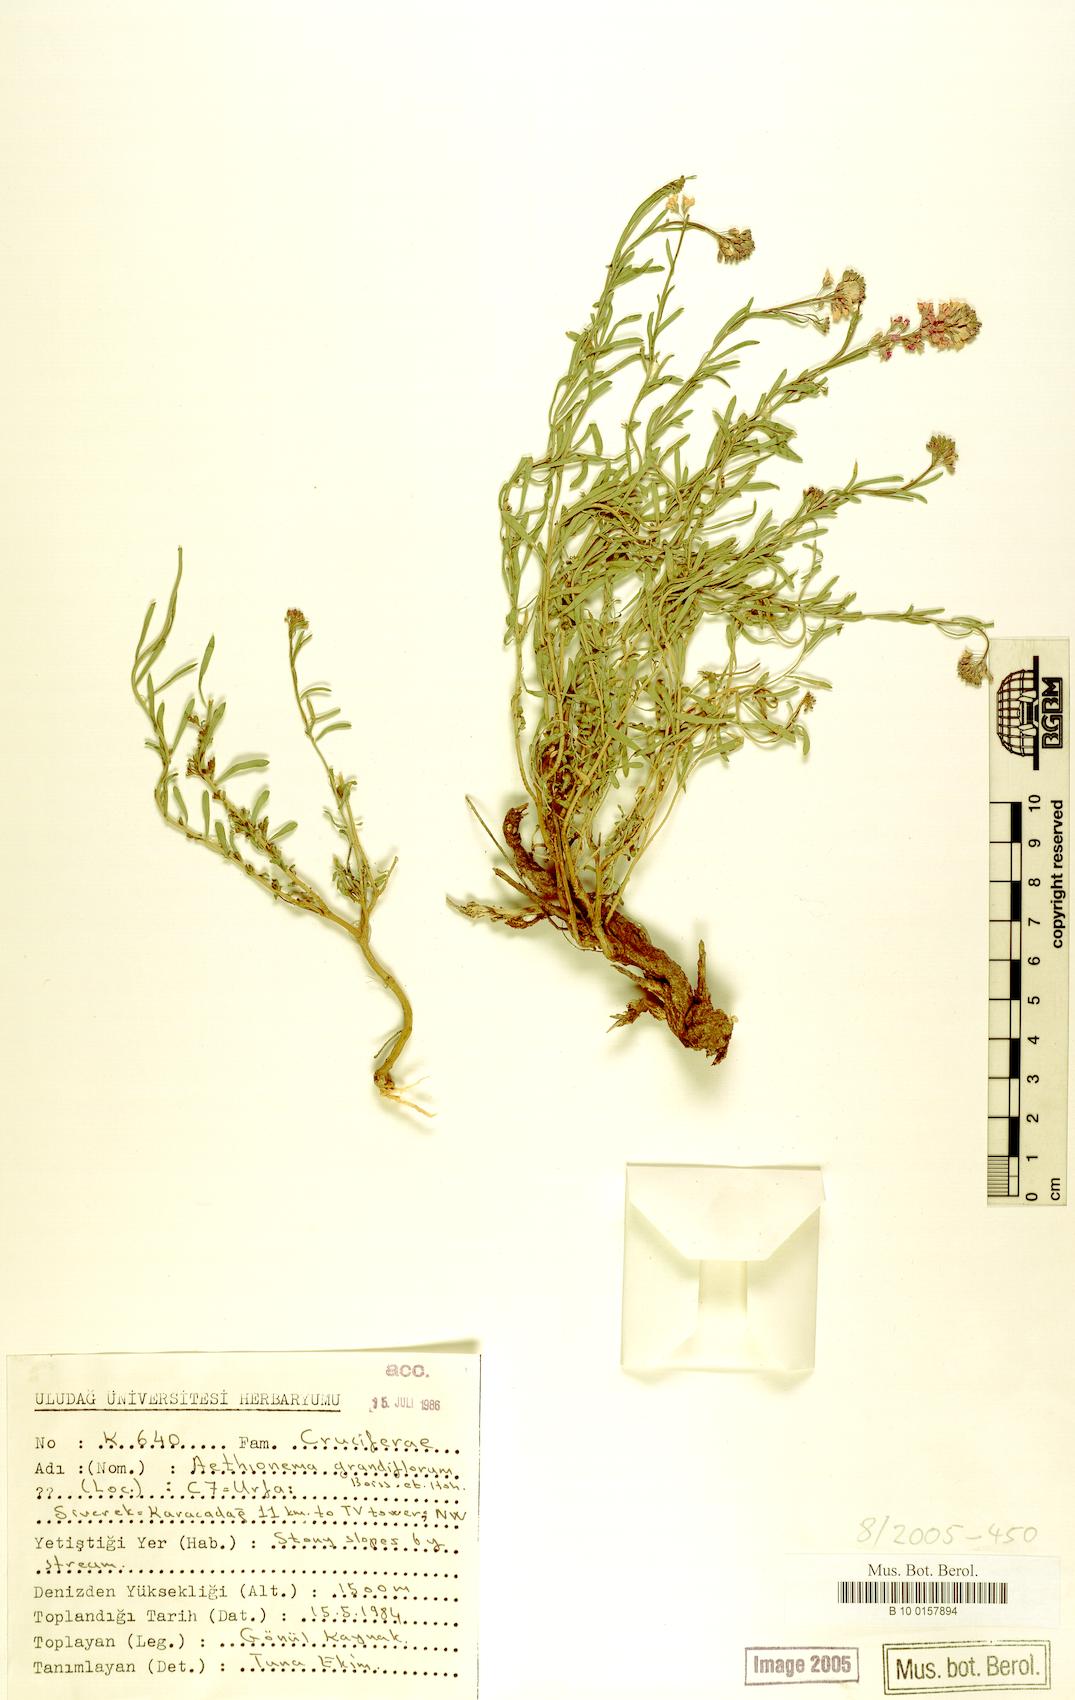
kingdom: Plantae
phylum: Tracheophyta
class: Magnoliopsida
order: Brassicales
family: Brassicaceae
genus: Aethionema
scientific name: Aethionema grandiflorum
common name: Persian stonecress
